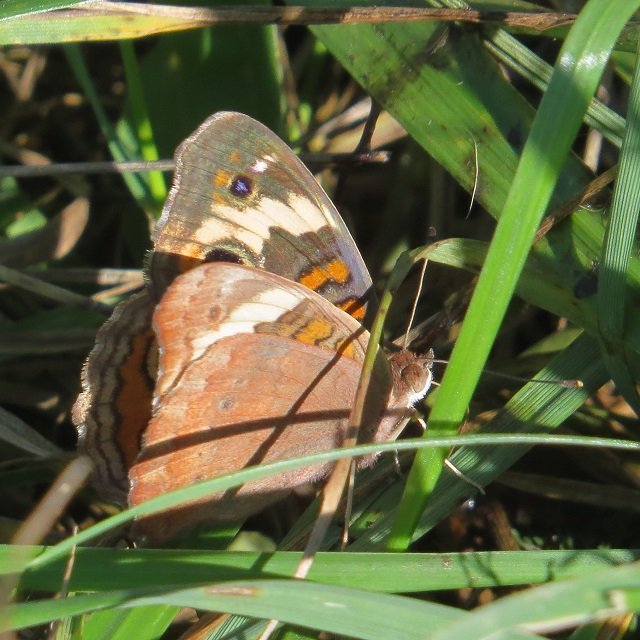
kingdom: Animalia
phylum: Arthropoda
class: Insecta
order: Lepidoptera
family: Nymphalidae
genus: Junonia
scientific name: Junonia coenia
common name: Common Buckeye
